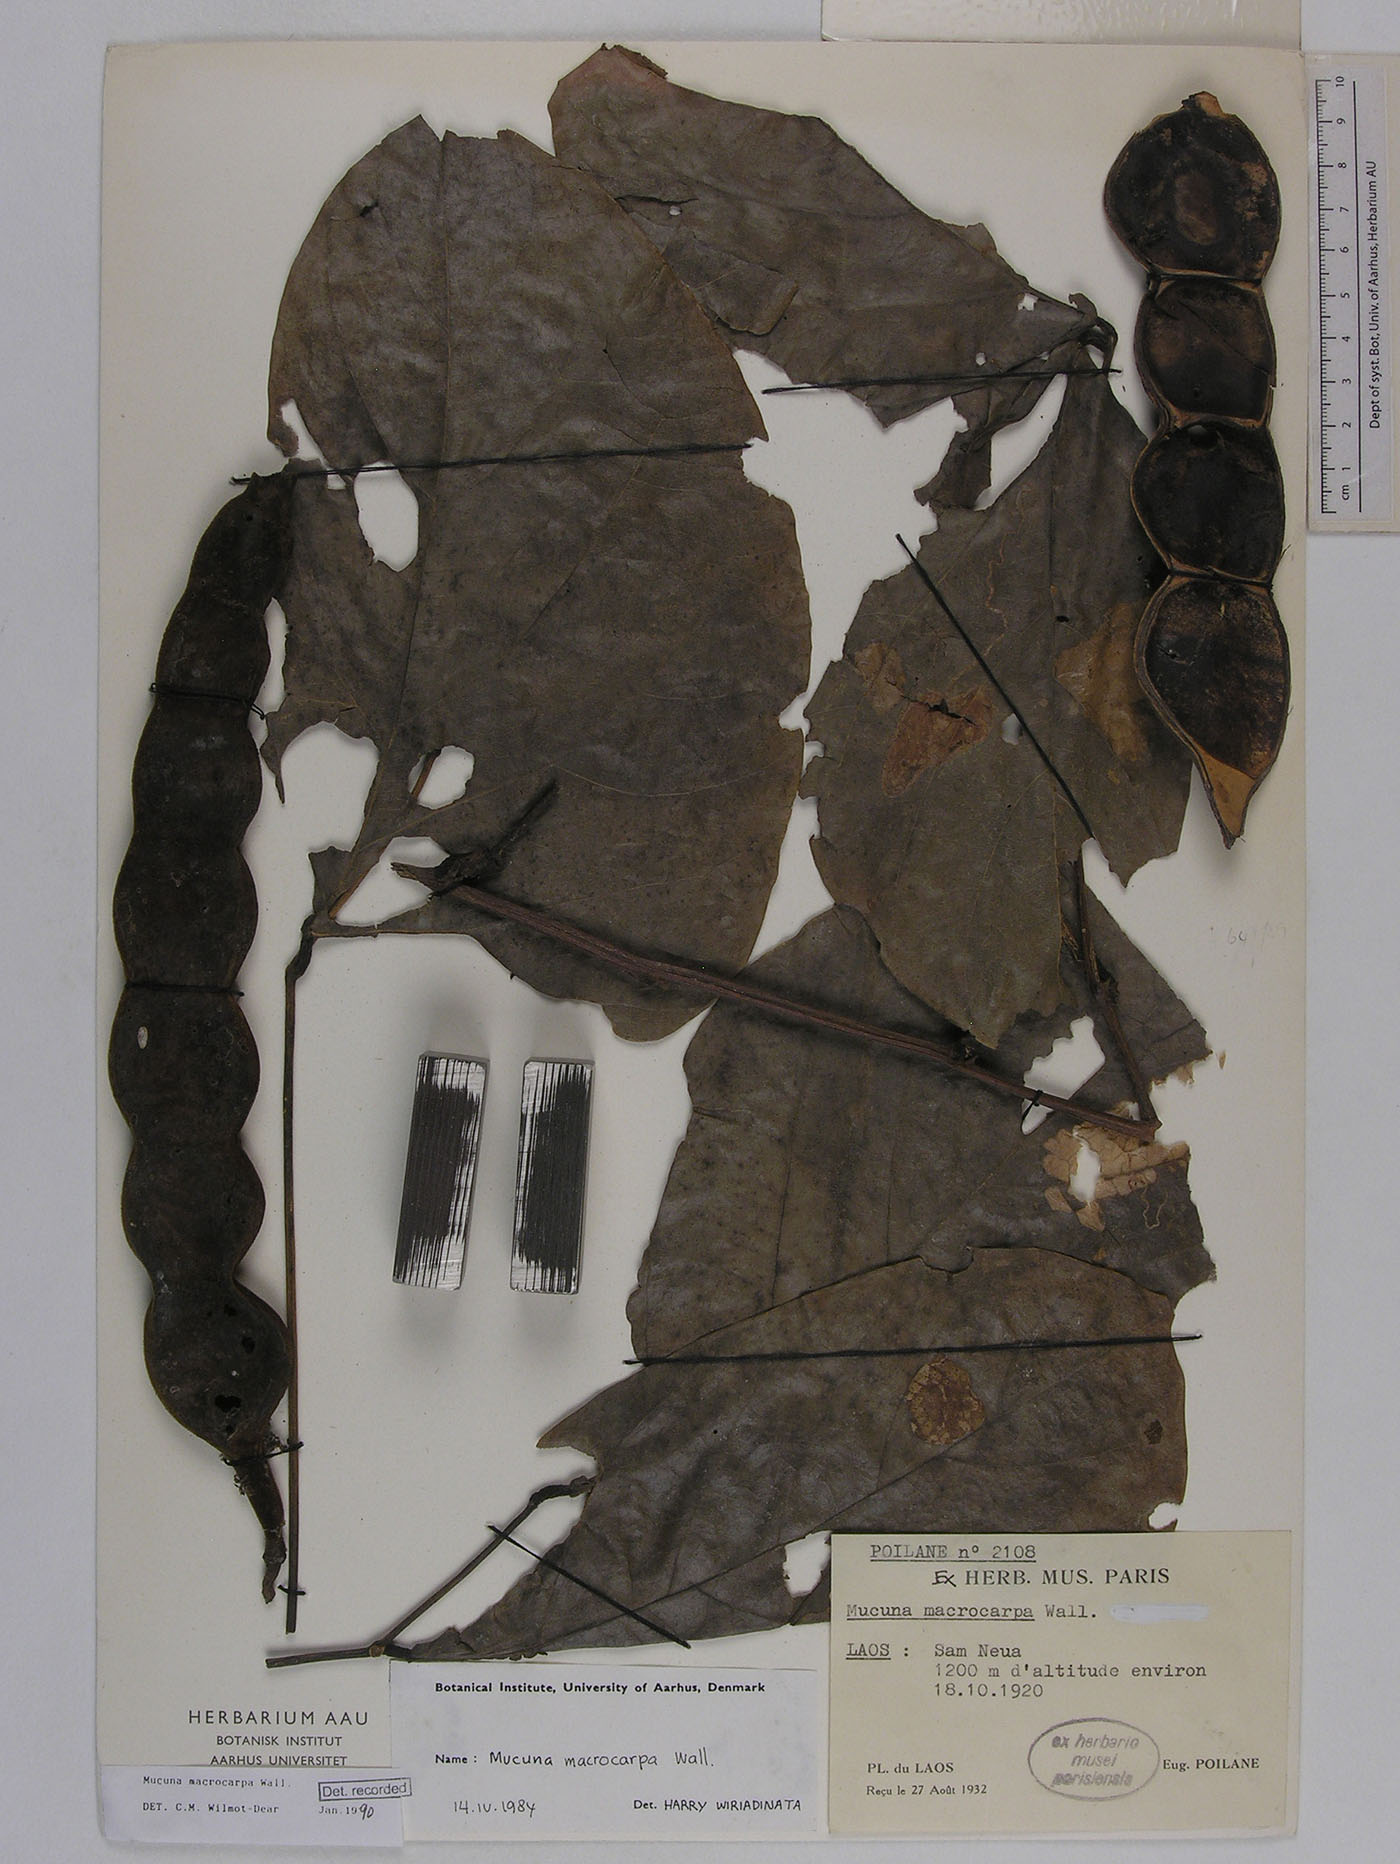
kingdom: Plantae
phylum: Tracheophyta
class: Magnoliopsida
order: Fabales
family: Fabaceae
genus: Mucuna
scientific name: Mucuna macrocarpa
